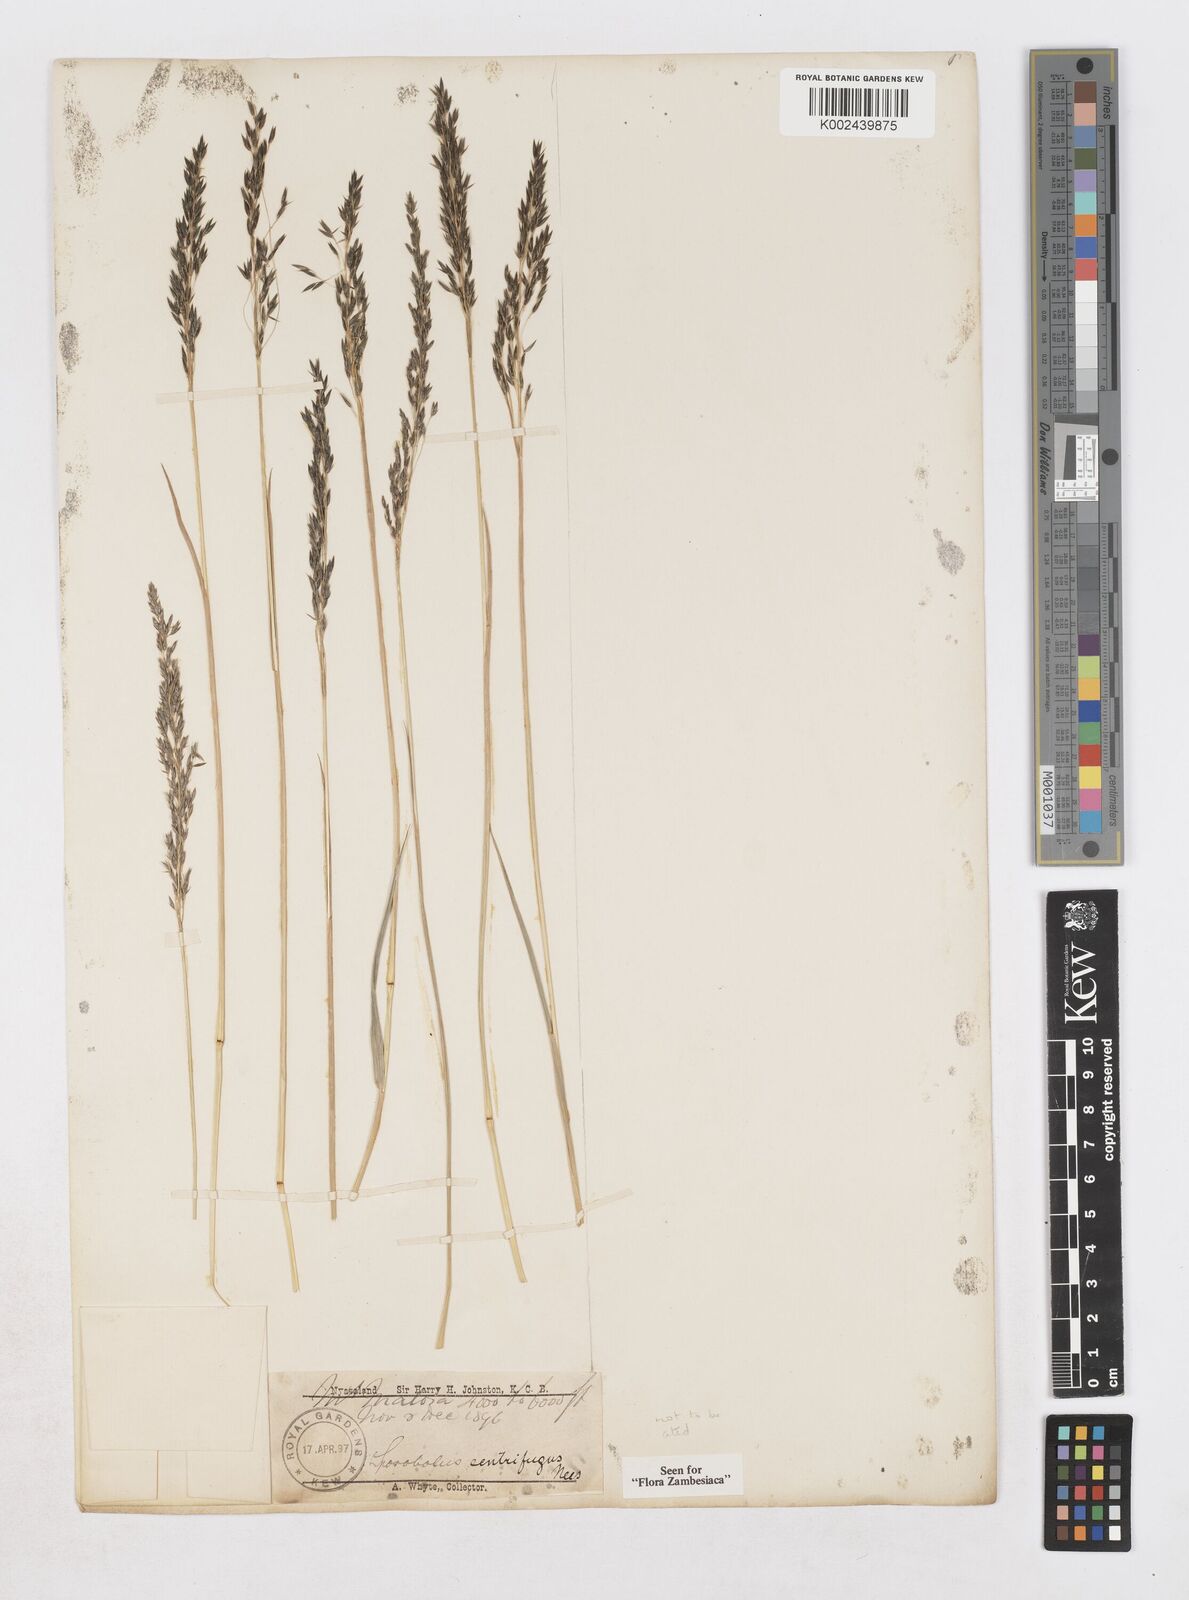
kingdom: Plantae
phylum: Tracheophyta
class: Liliopsida
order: Poales
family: Poaceae
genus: Sporobolus
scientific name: Sporobolus centrifugus
